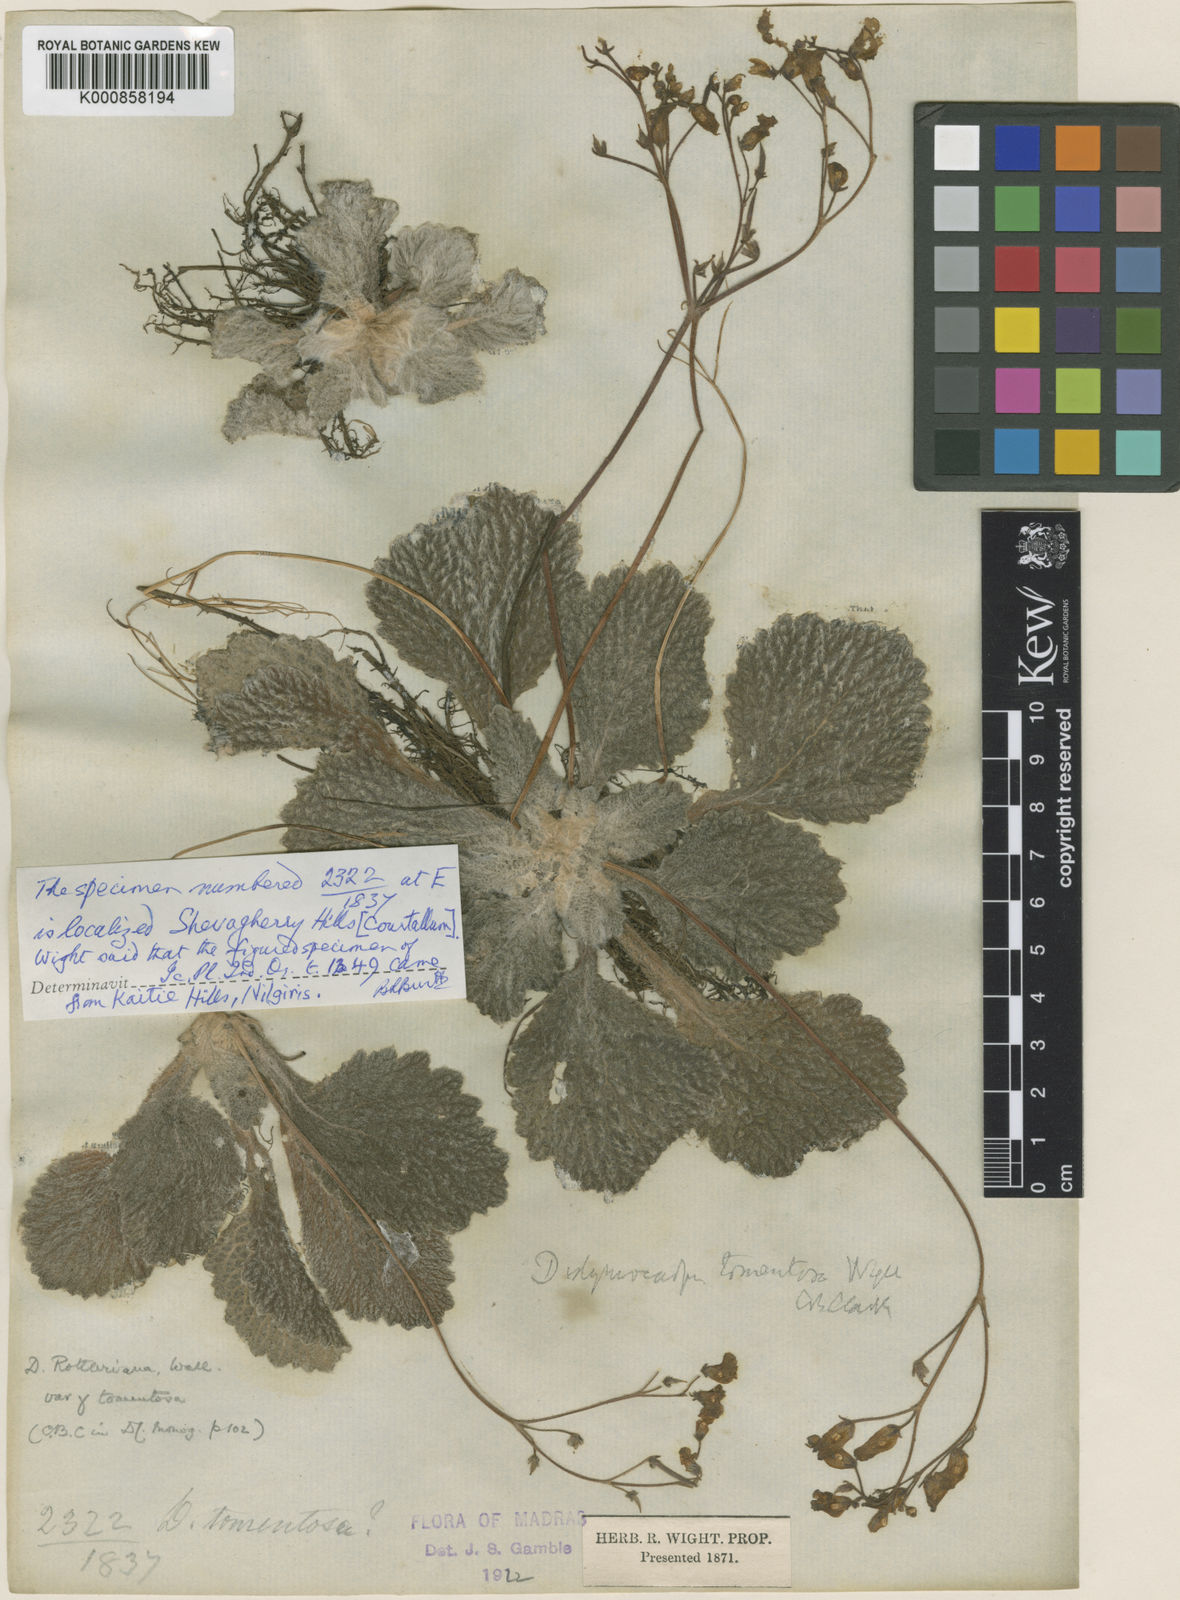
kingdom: Plantae
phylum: Tracheophyta
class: Magnoliopsida
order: Lamiales
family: Gesneriaceae
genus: Henckelia
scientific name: Henckelia incana
